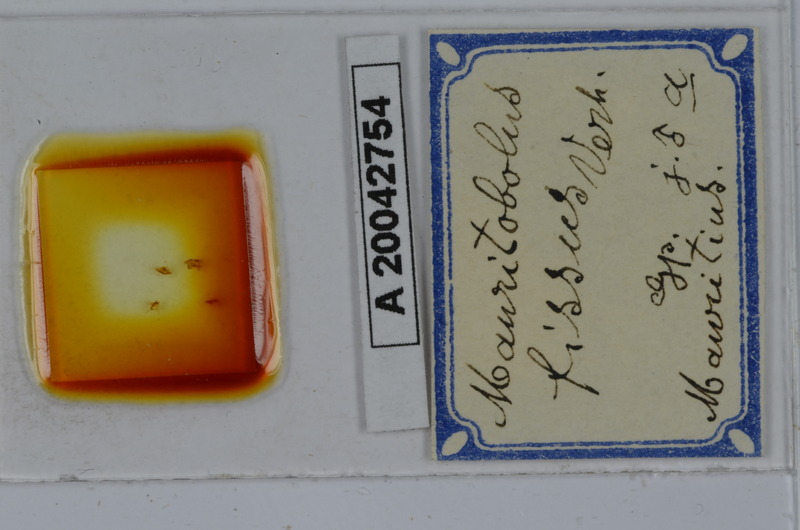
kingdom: Animalia
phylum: Arthropoda
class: Diplopoda
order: Spirobolida
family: Spirobolellidae
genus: Mauritobolus
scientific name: Mauritobolus fissus
